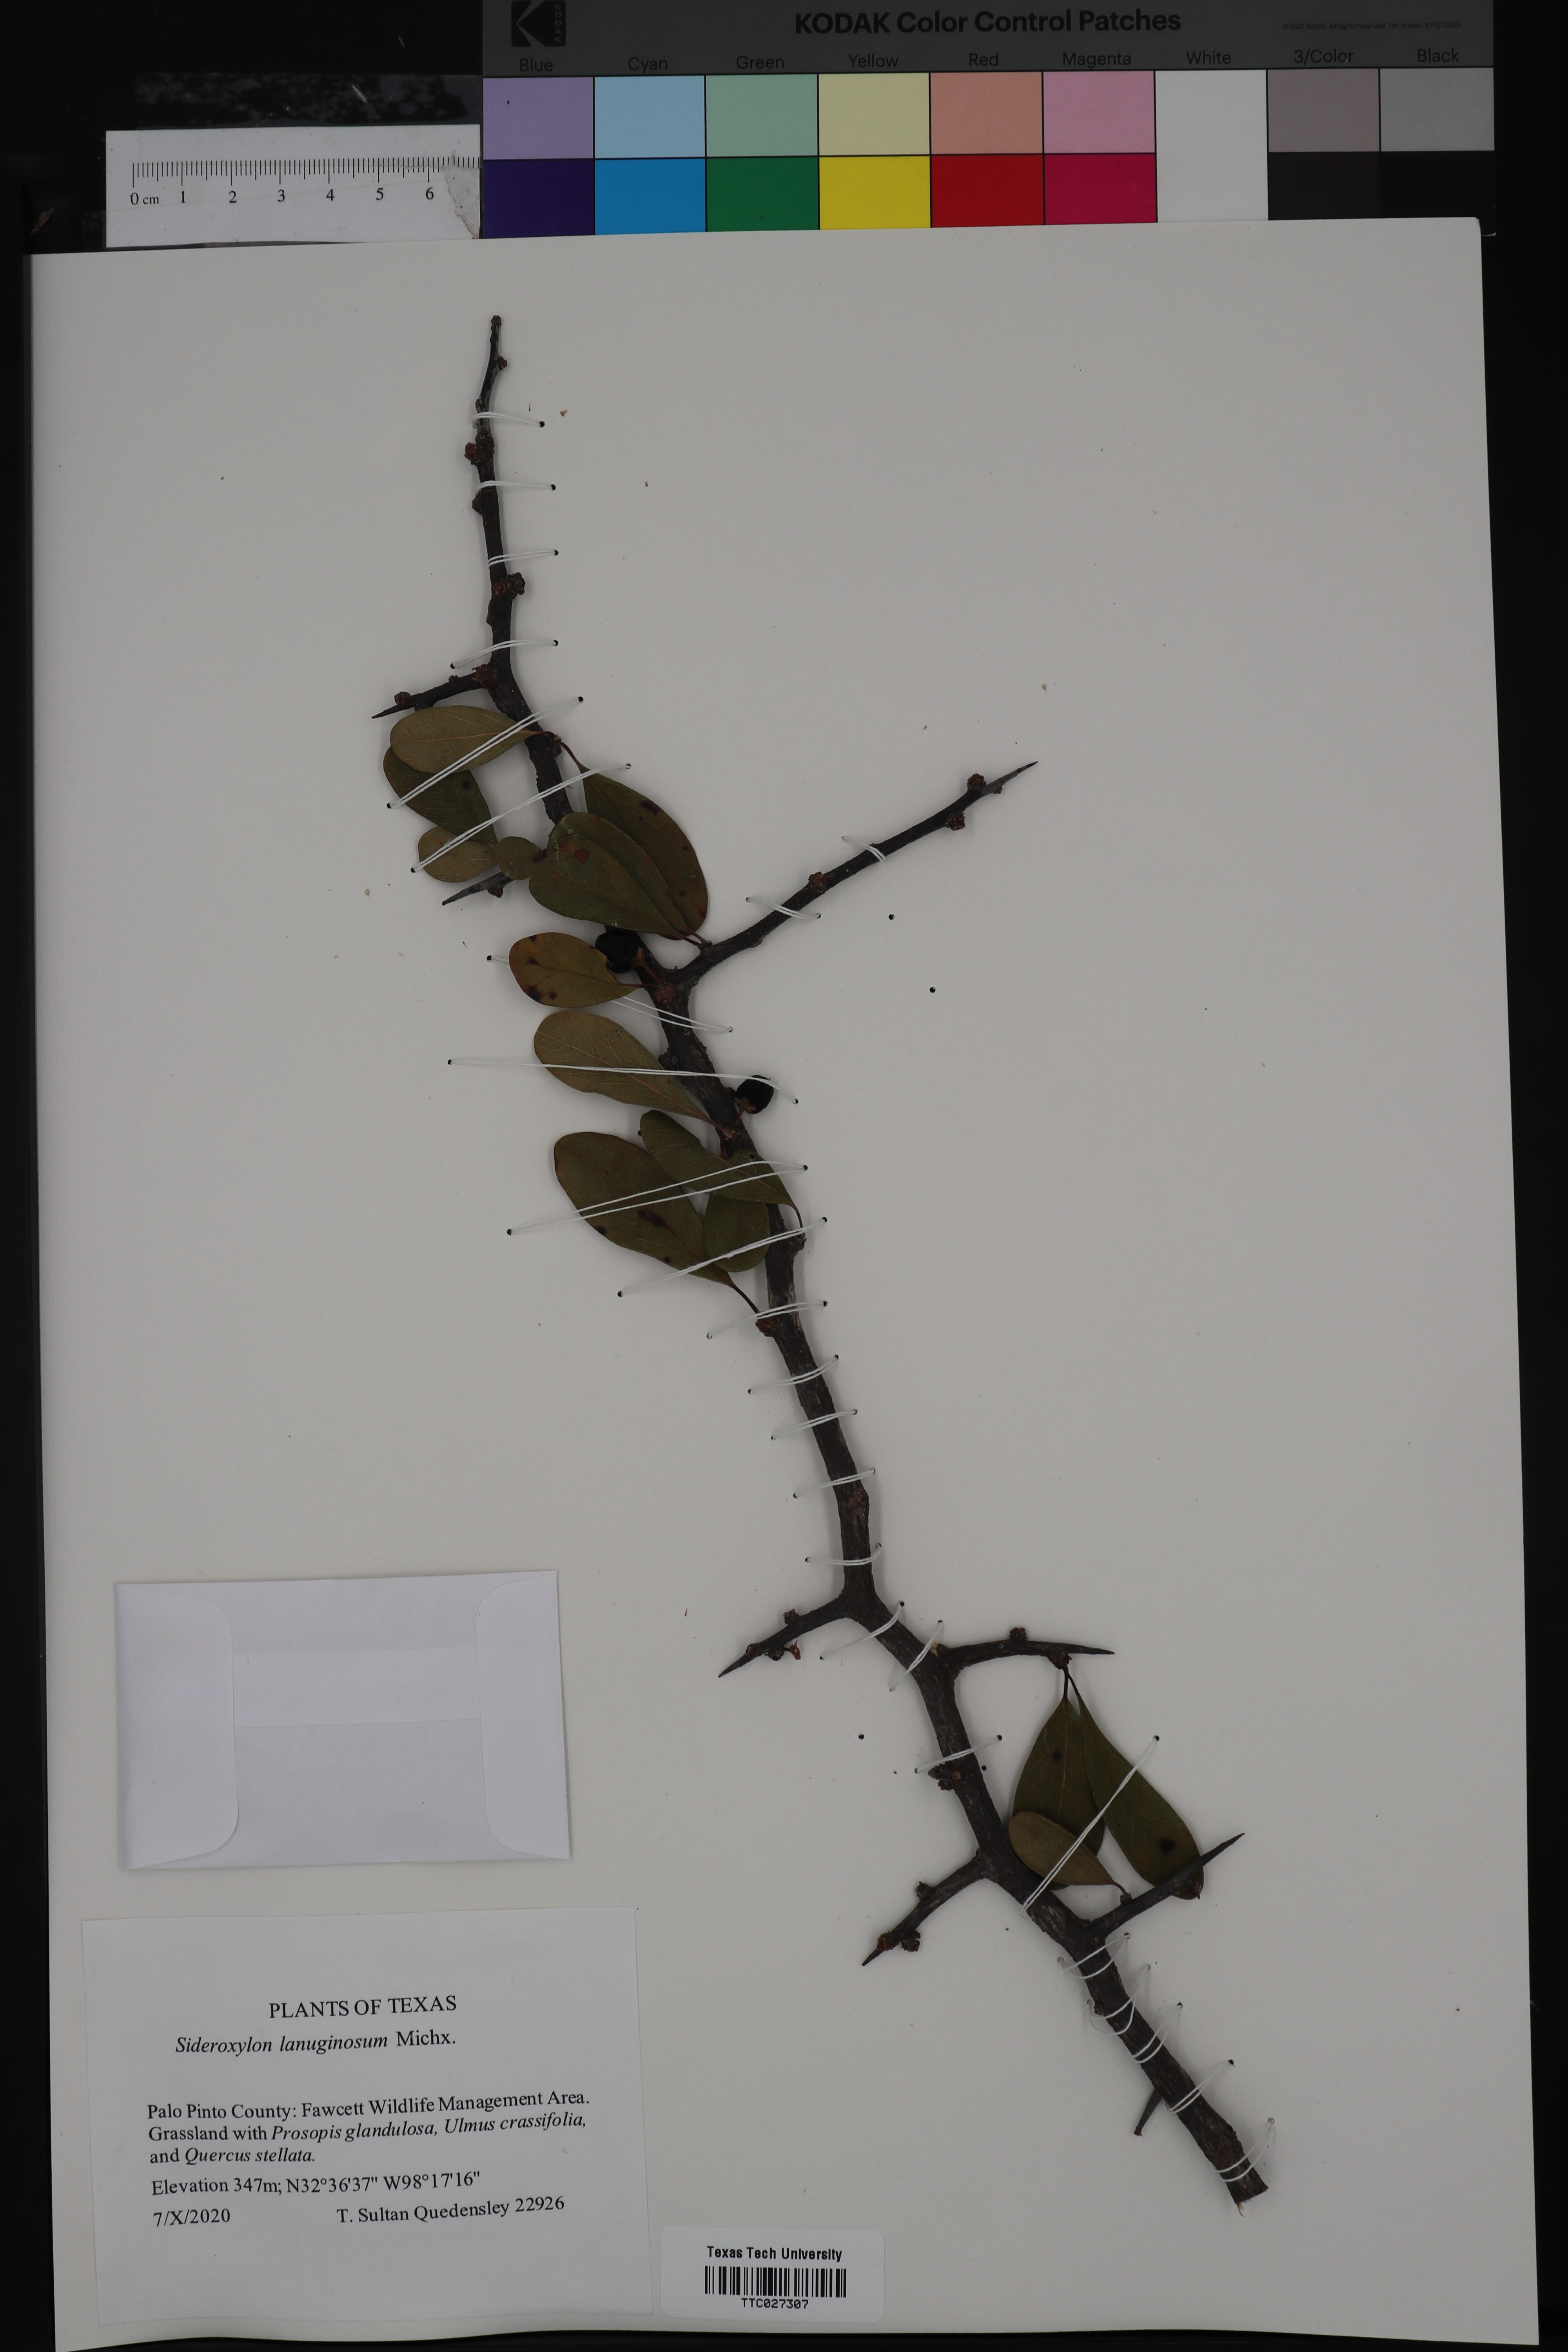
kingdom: Plantae
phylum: Tracheophyta
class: Magnoliopsida
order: Ericales
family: Sapotaceae
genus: Sideroxylon
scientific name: Sideroxylon lanuginosum
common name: Chittamwood
